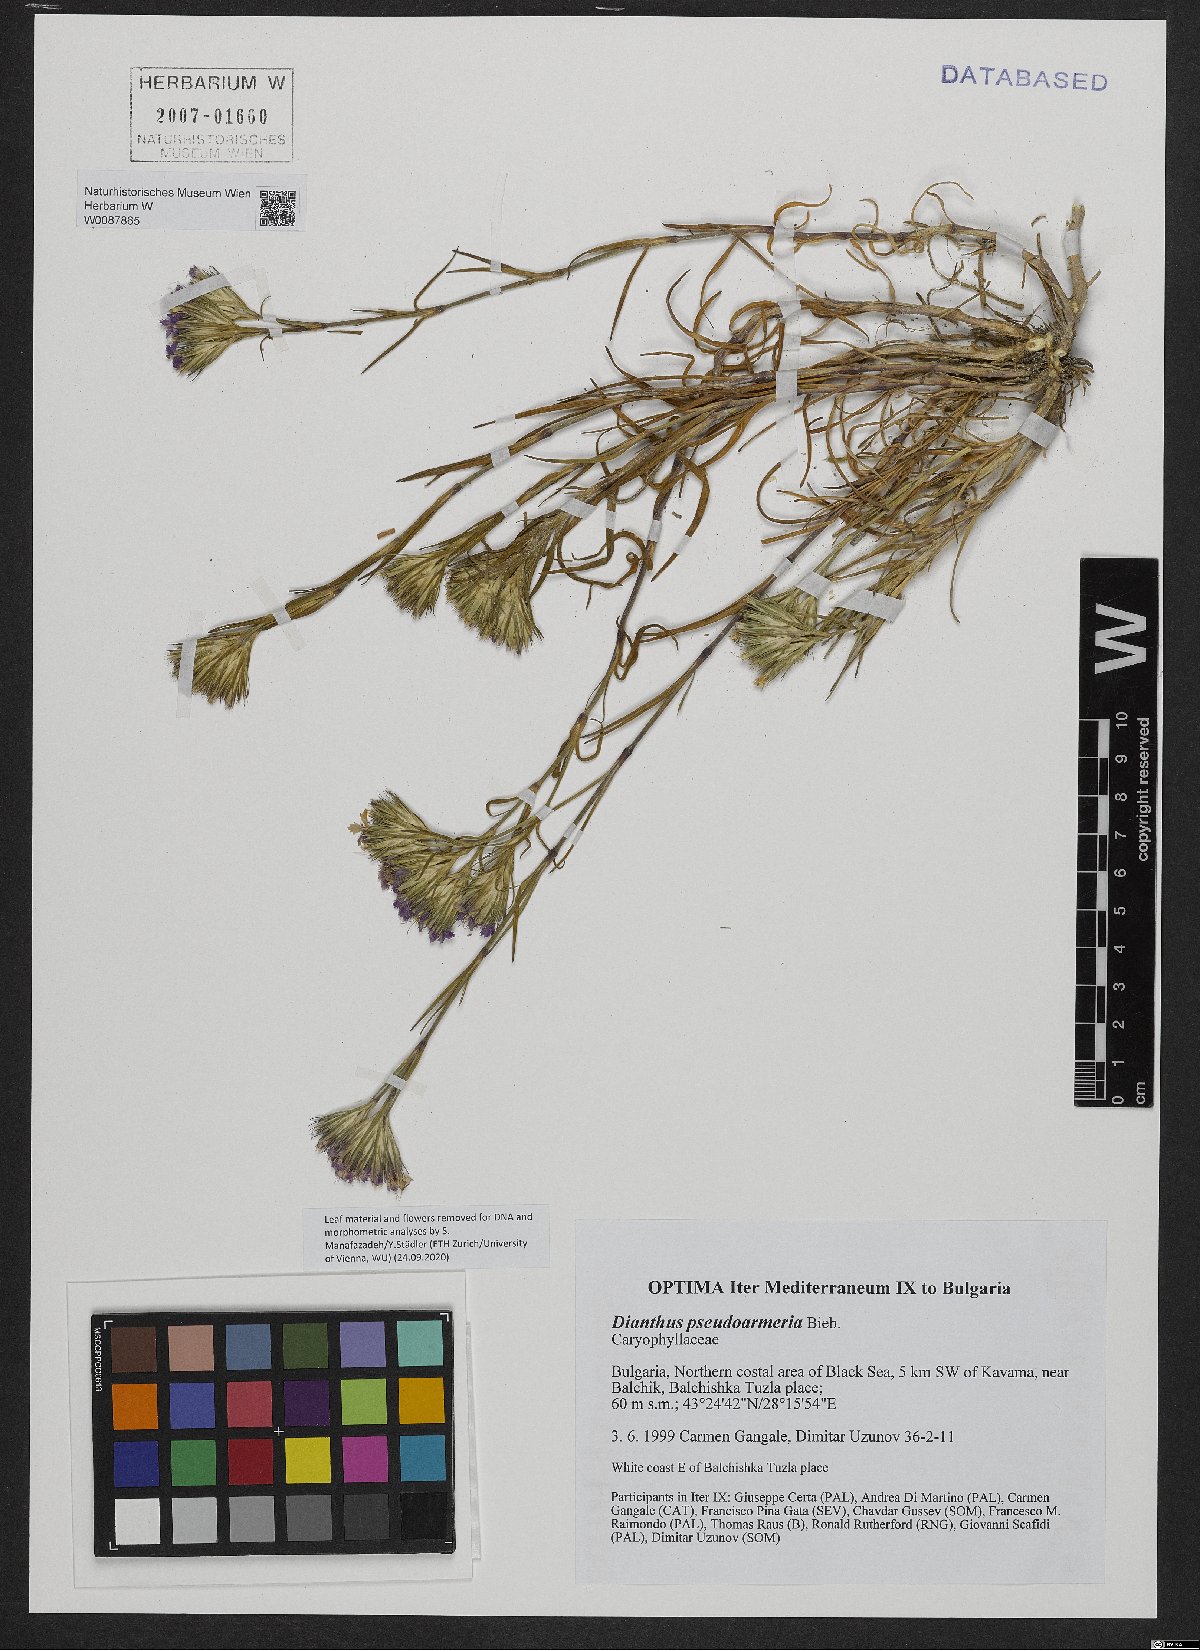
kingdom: Plantae
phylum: Tracheophyta
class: Magnoliopsida
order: Caryophyllales
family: Caryophyllaceae
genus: Dianthus
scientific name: Dianthus pseudarmeria
